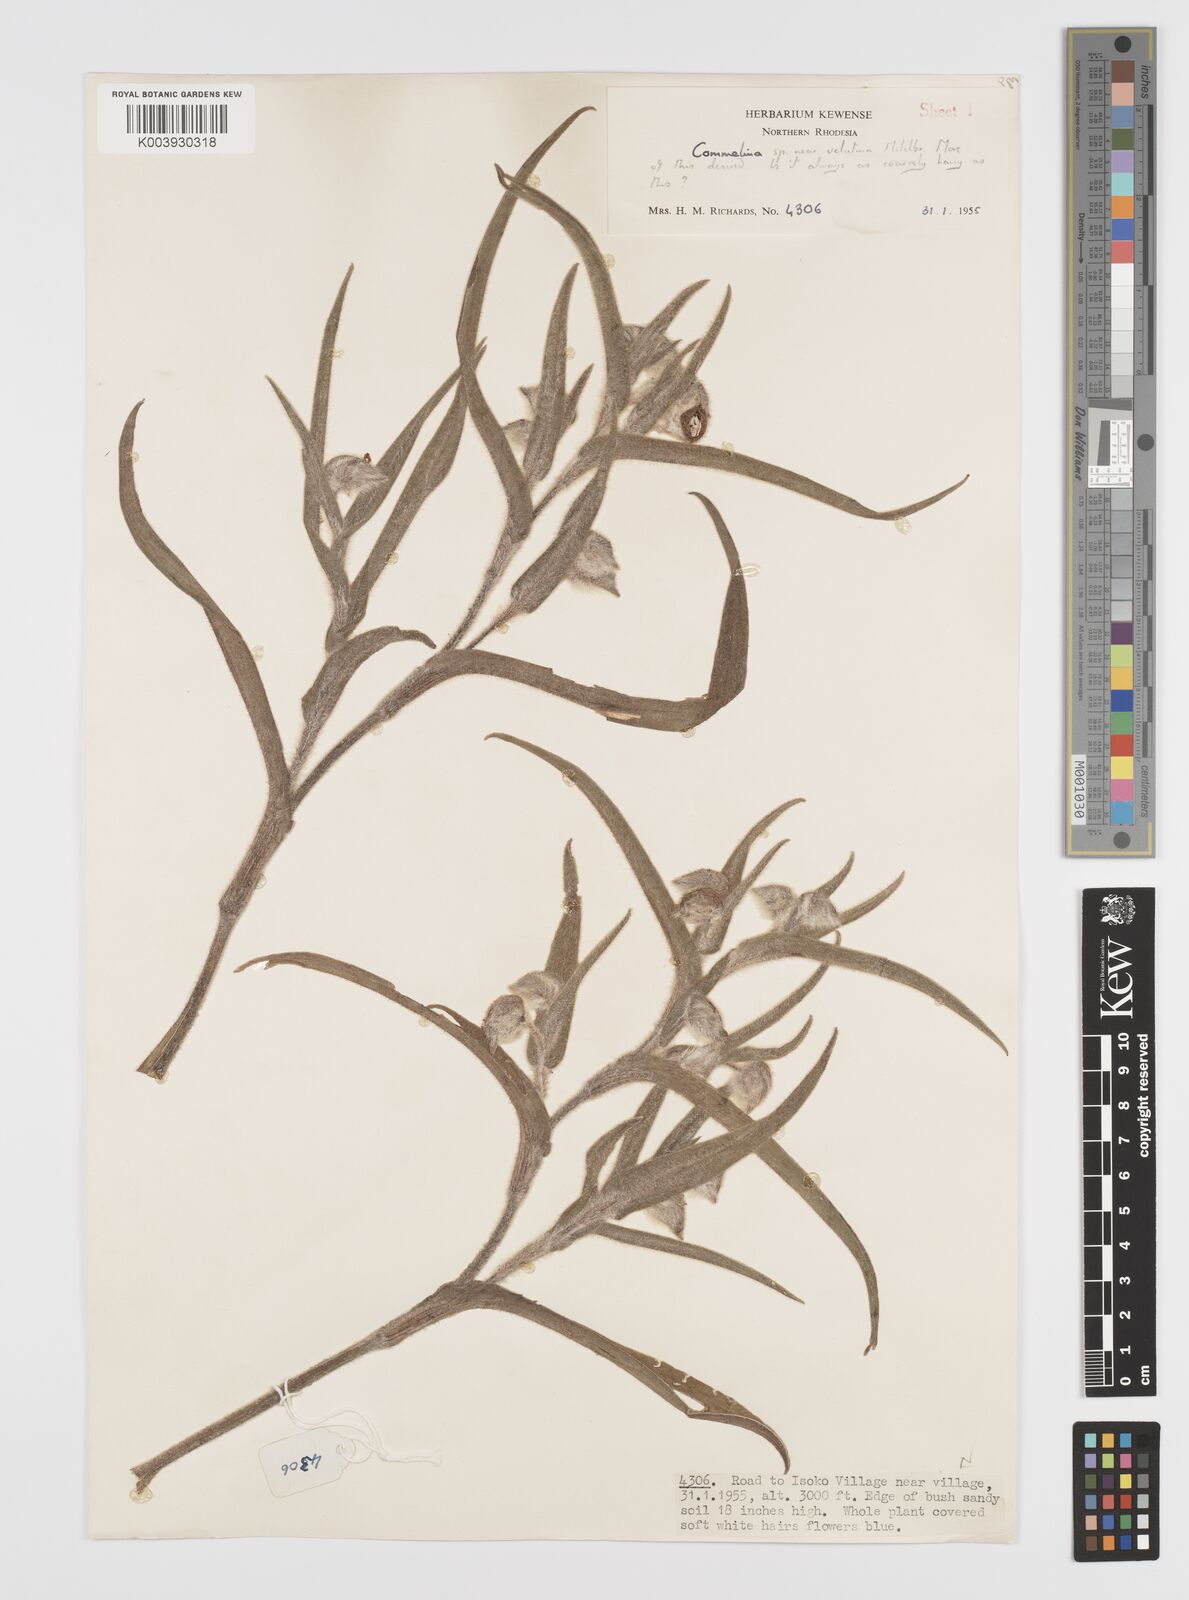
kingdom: Plantae
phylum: Tracheophyta
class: Liliopsida
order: Commelinales
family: Commelinaceae
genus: Commelina
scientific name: Commelina cecilae
